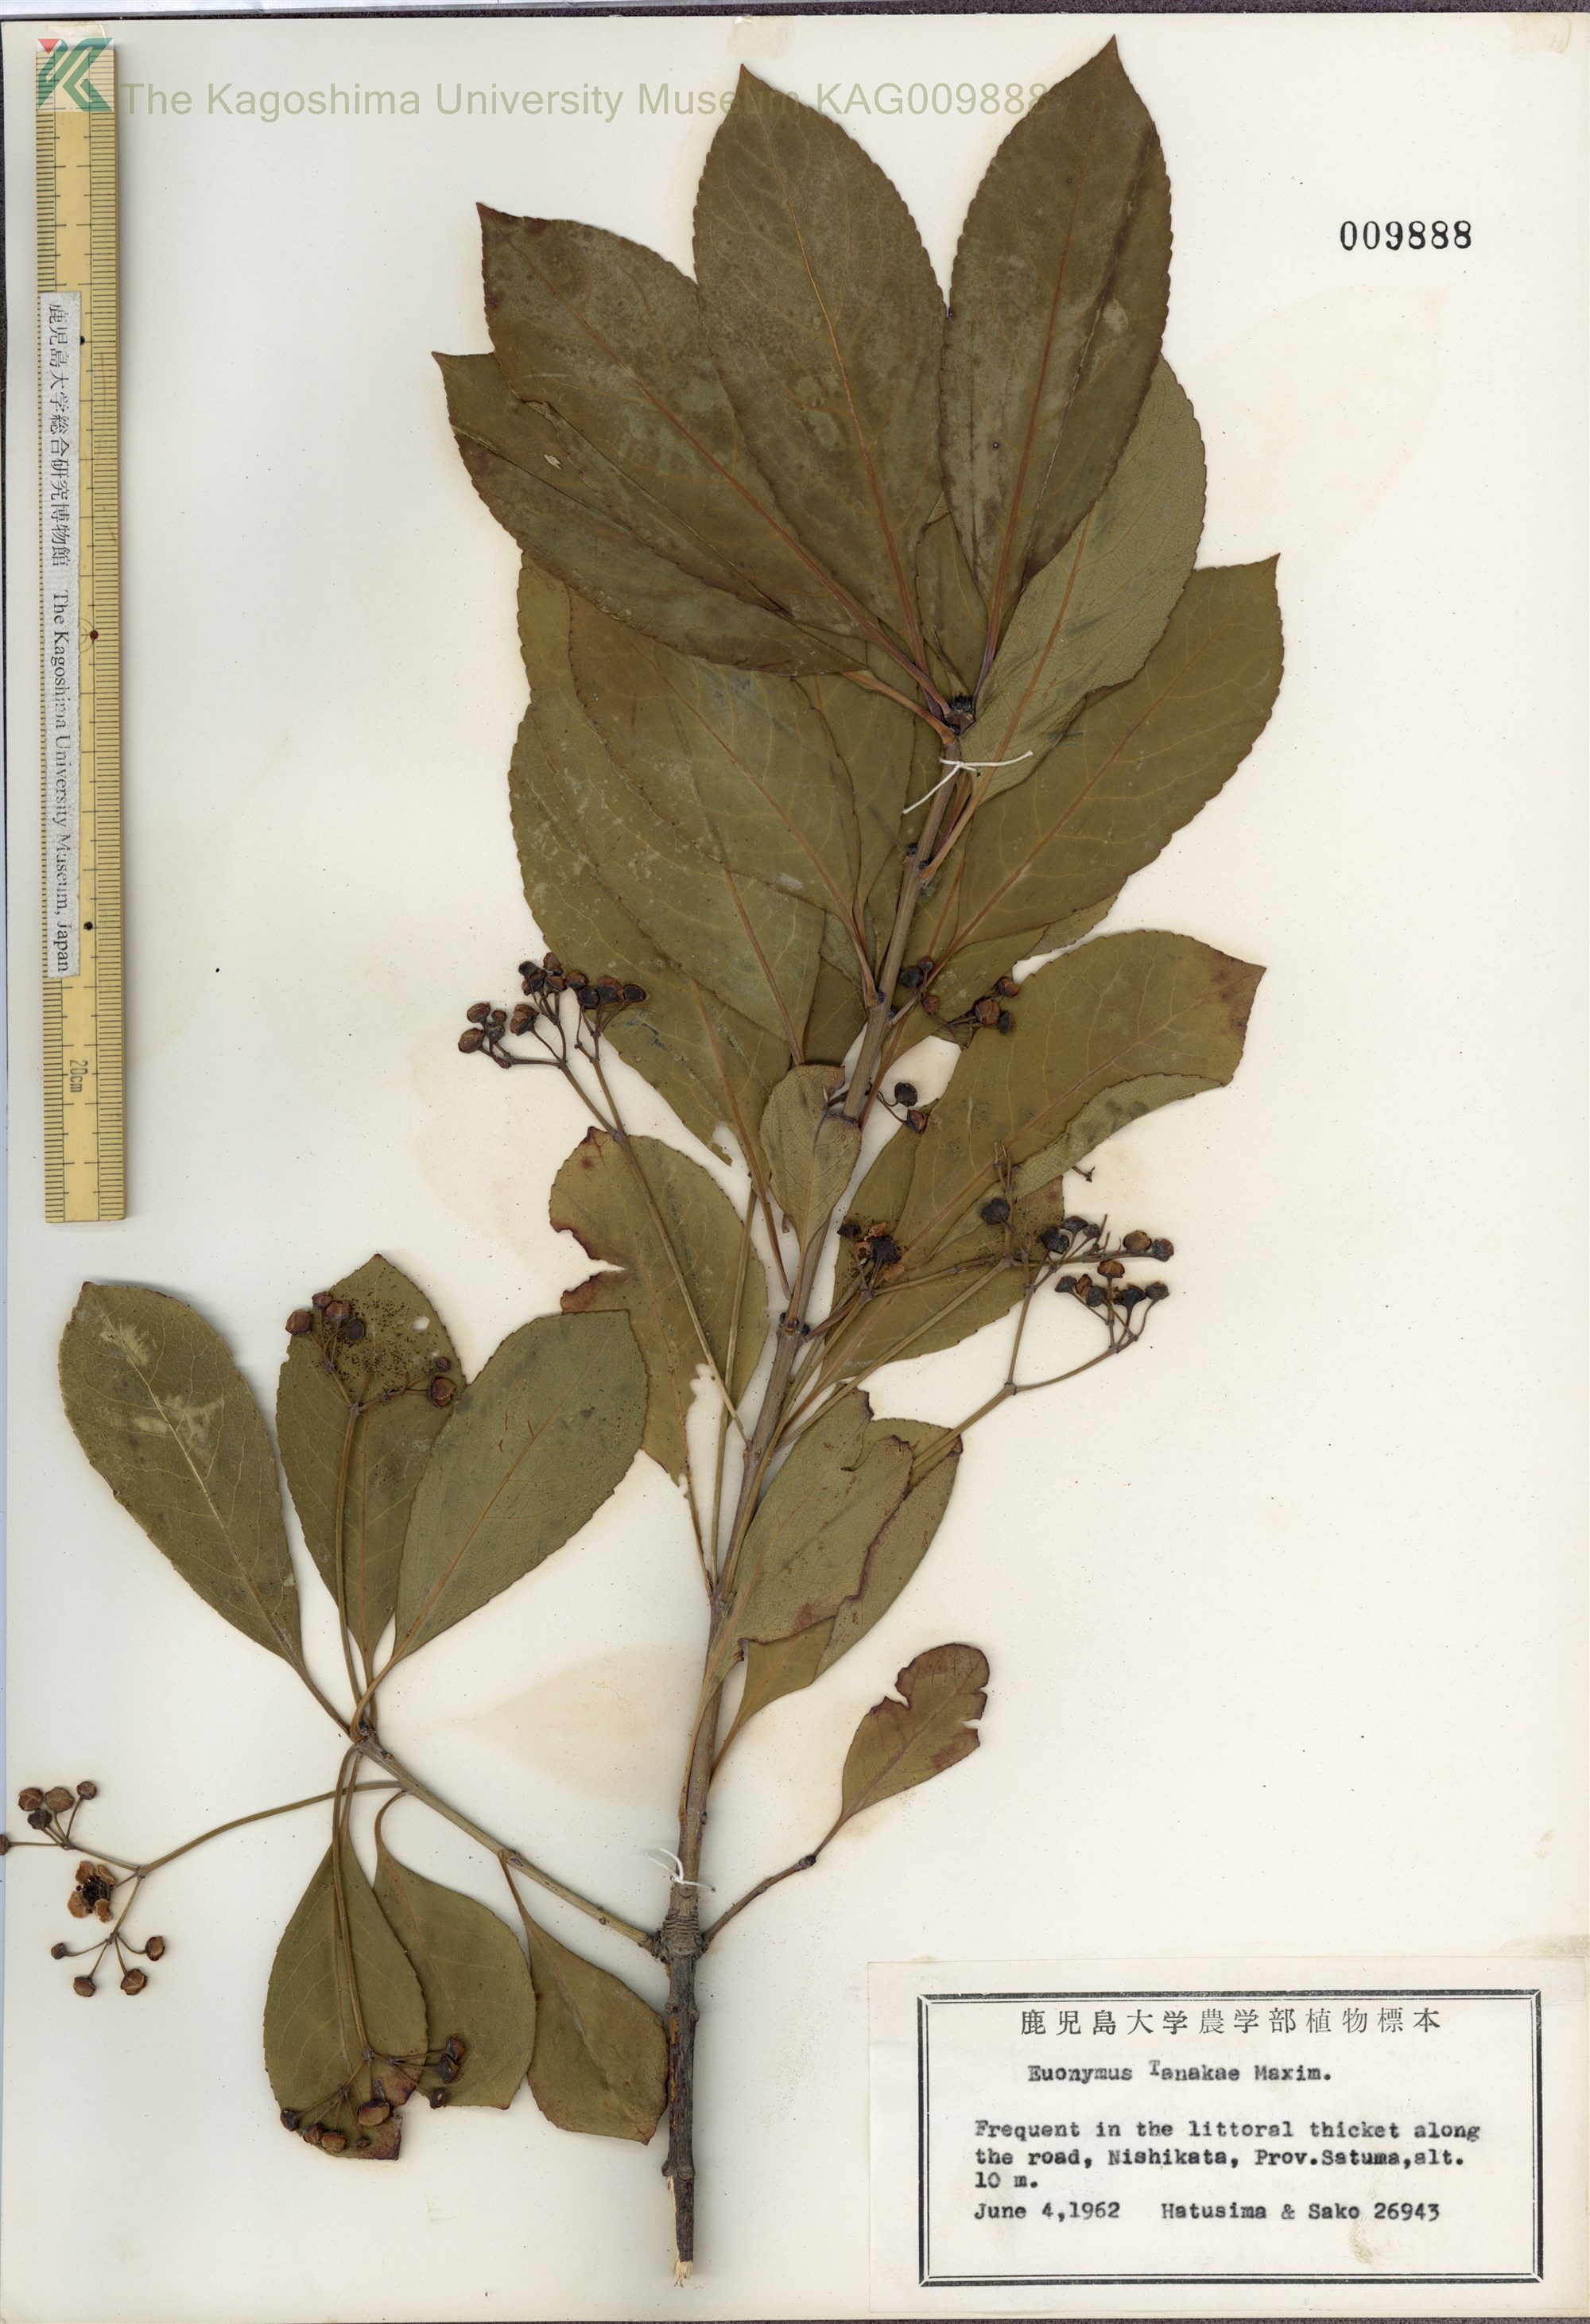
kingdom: Plantae
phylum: Tracheophyta
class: Magnoliopsida
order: Celastrales
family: Celastraceae
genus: Euonymus
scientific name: Euonymus carnosus
